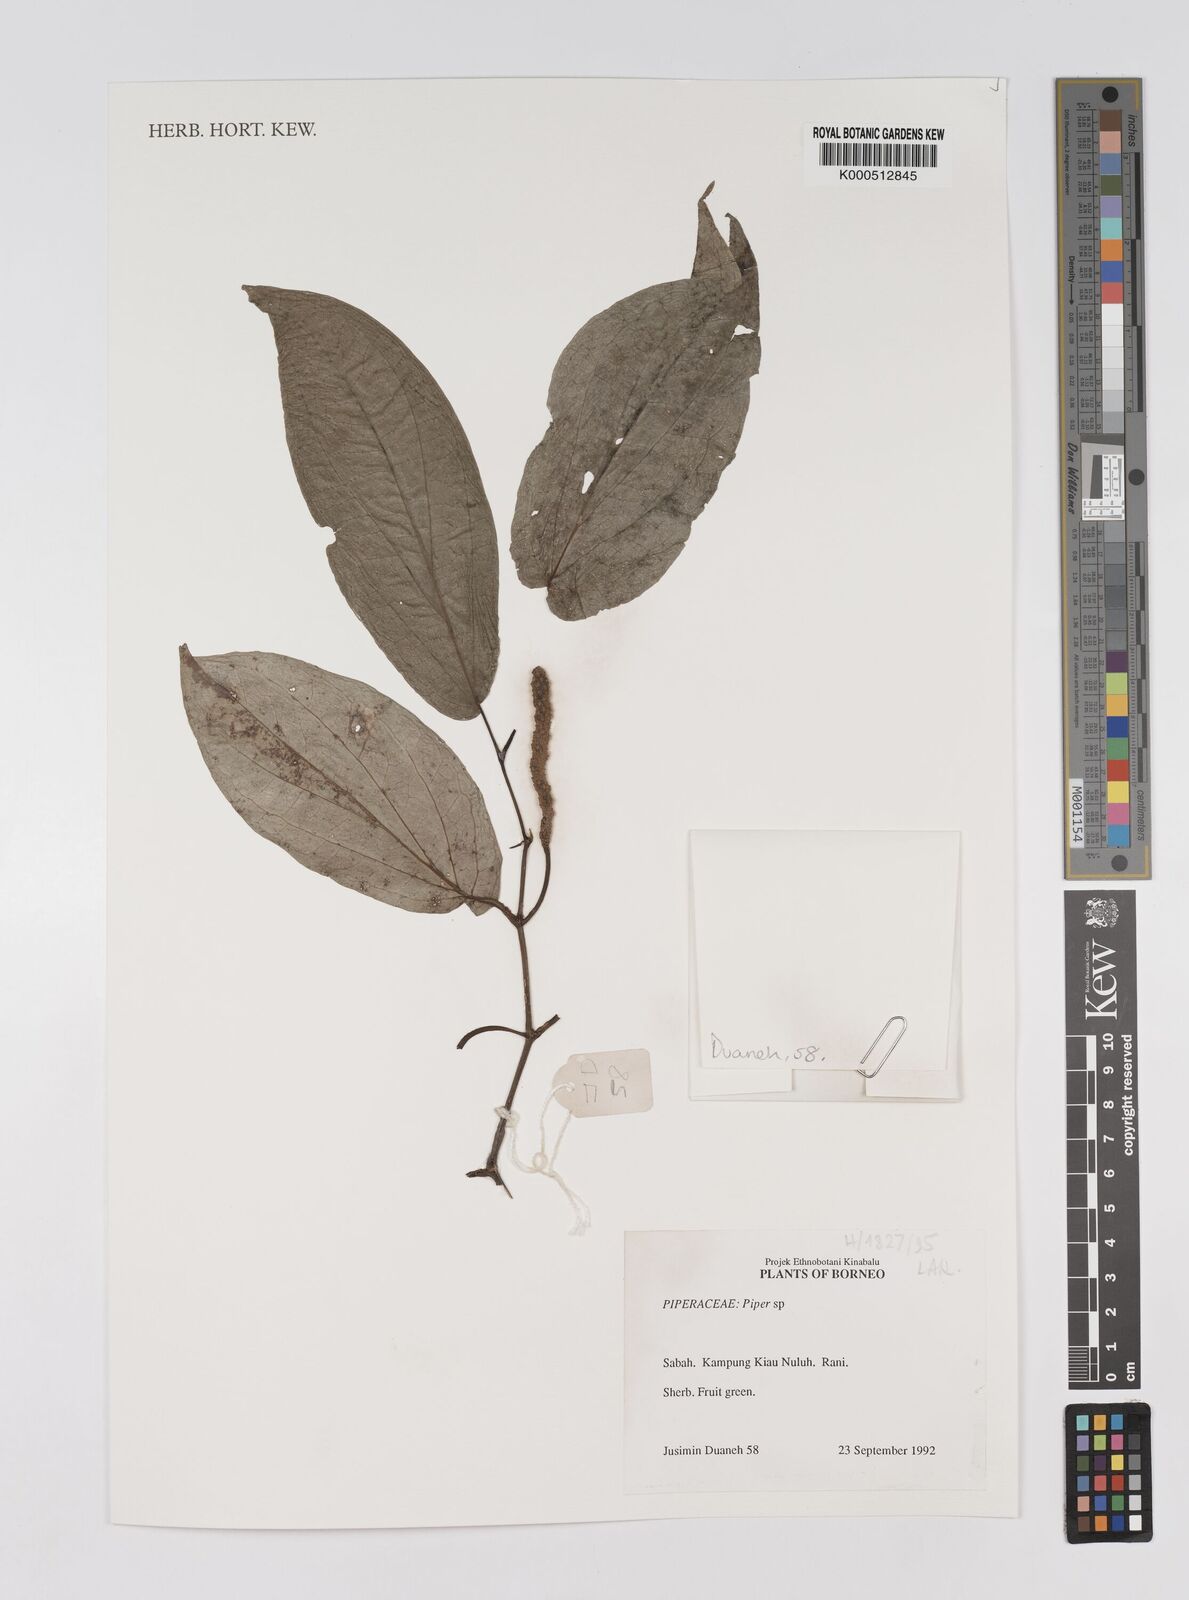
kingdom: Plantae
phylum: Tracheophyta
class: Magnoliopsida
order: Piperales
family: Piperaceae
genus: Piper
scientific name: Piper
